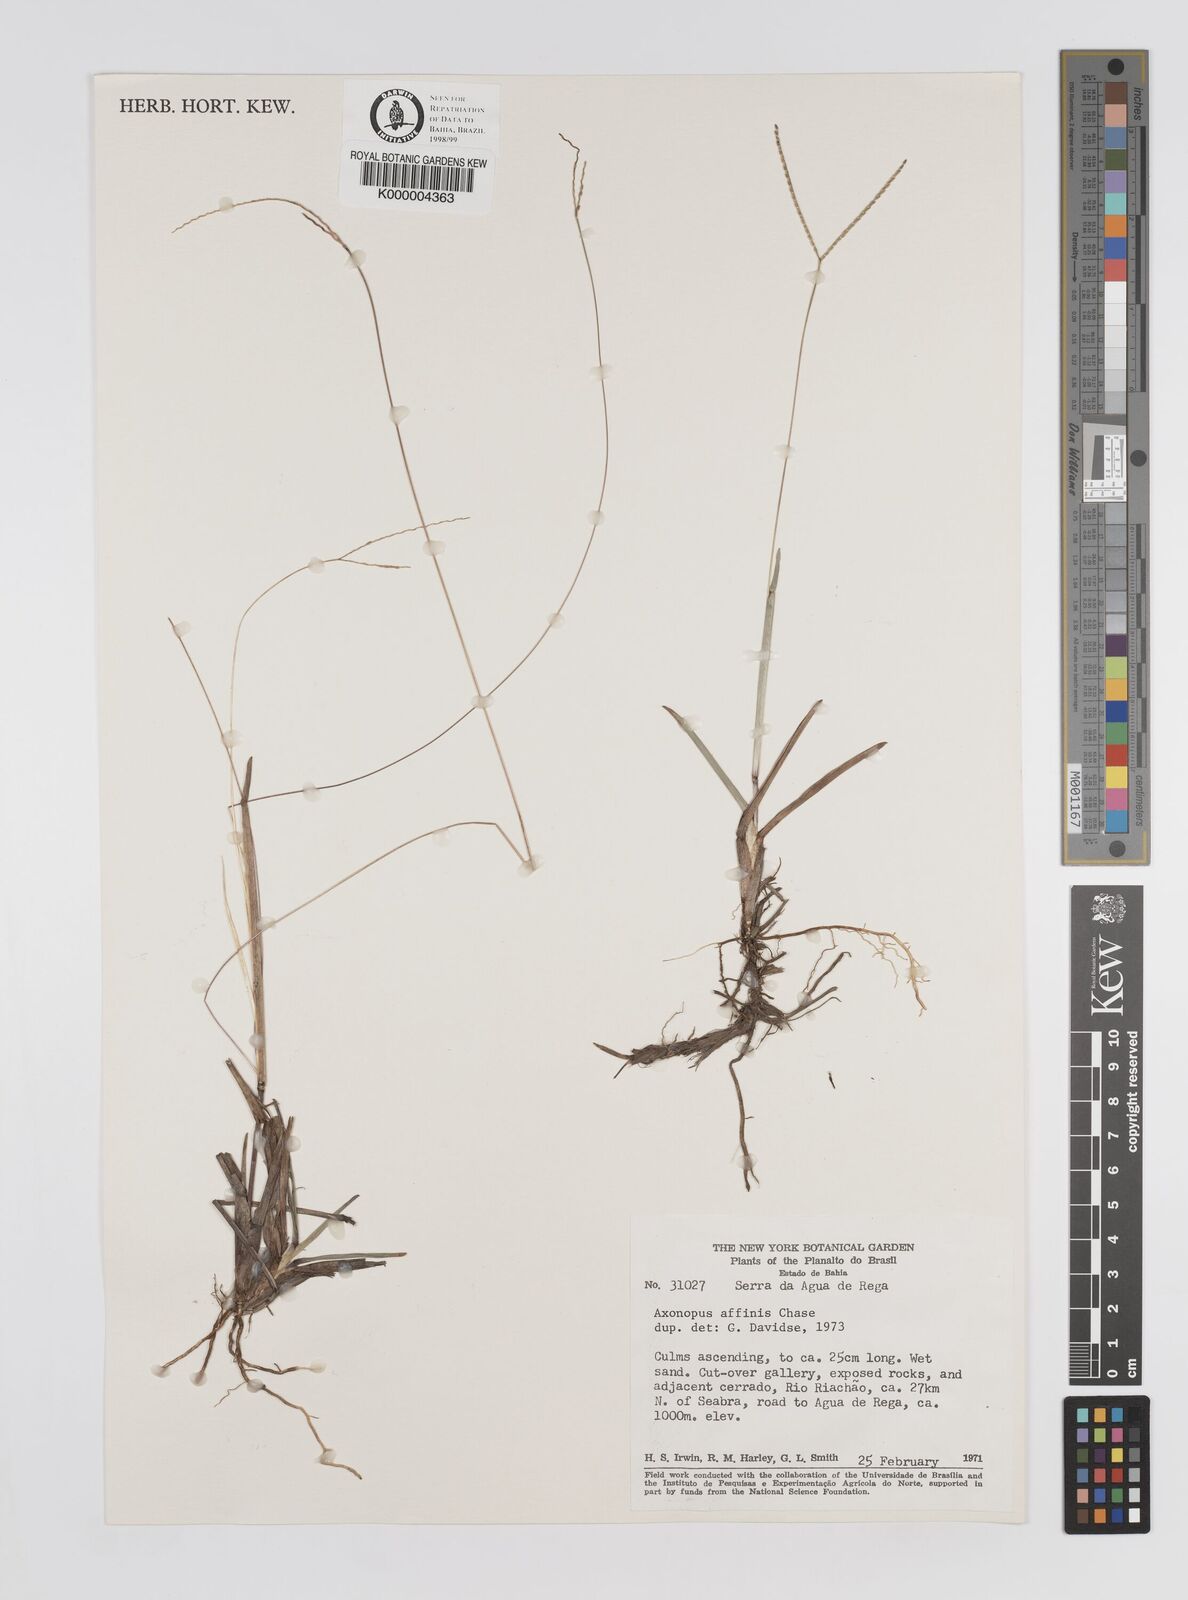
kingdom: Plantae
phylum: Tracheophyta
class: Liliopsida
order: Poales
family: Poaceae
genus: Axonopus
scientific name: Axonopus fissifolius
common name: Common carpetgrass
